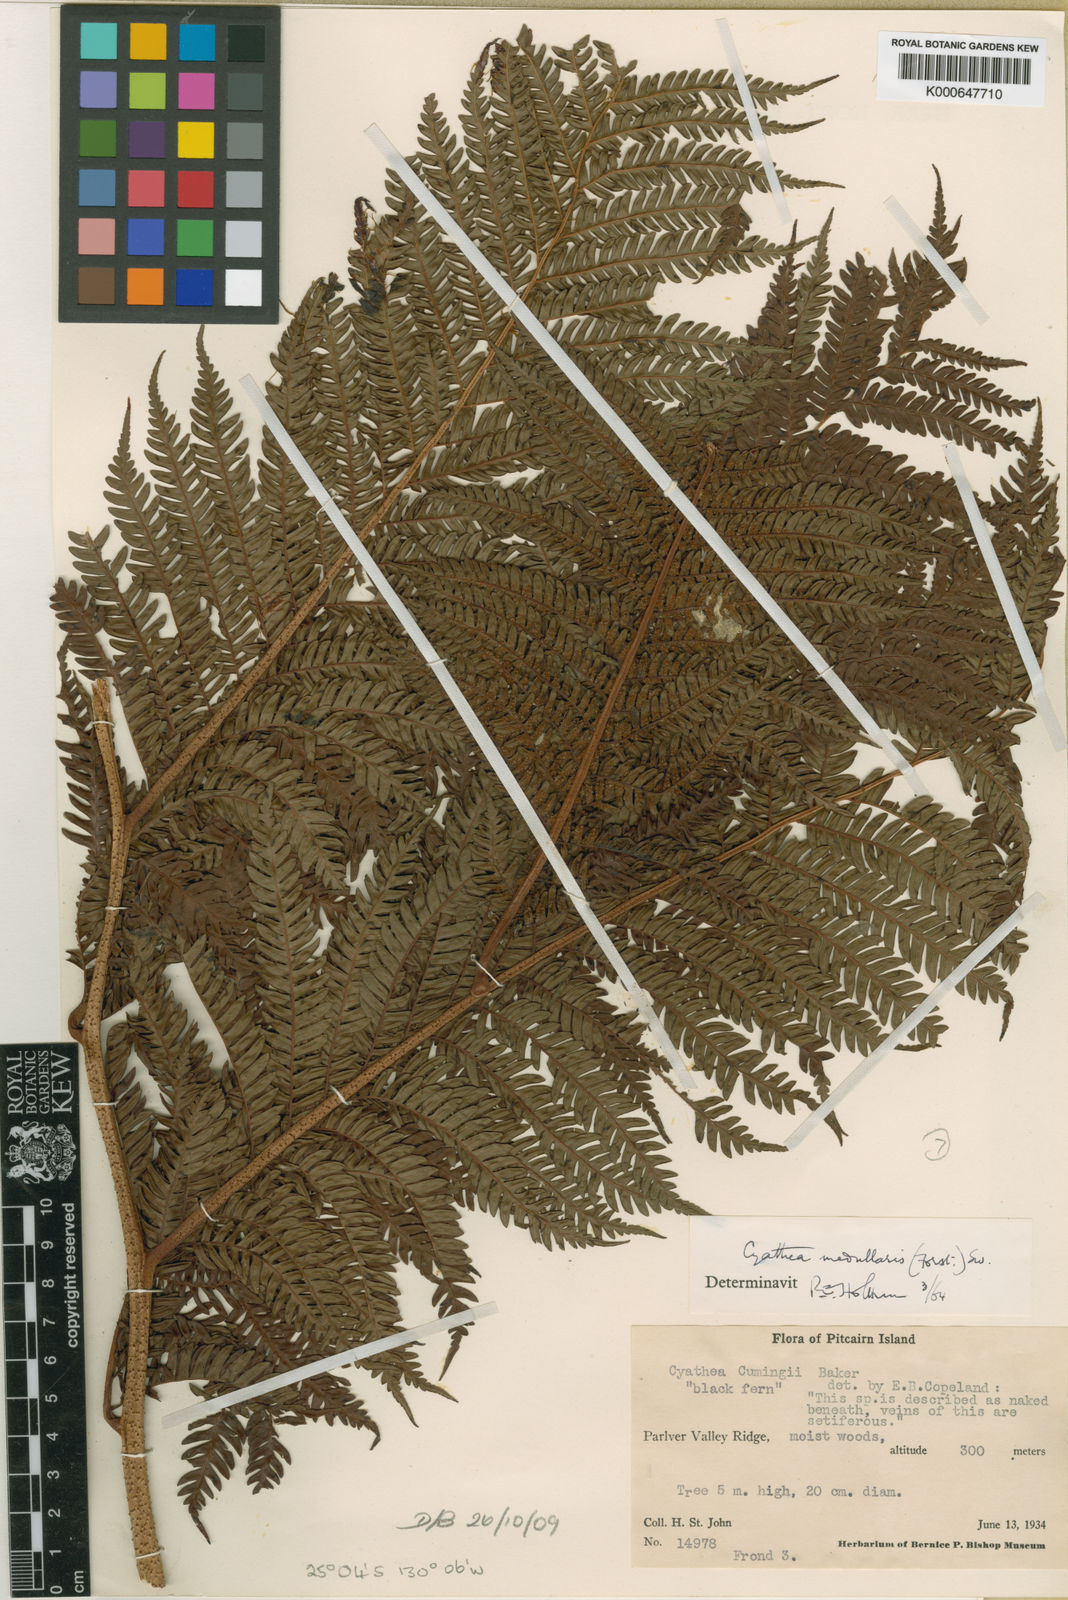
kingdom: Plantae
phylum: Tracheophyta
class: Polypodiopsida
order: Cyatheales
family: Cyatheaceae
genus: Sphaeropteris
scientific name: Sphaeropteris medullaris
